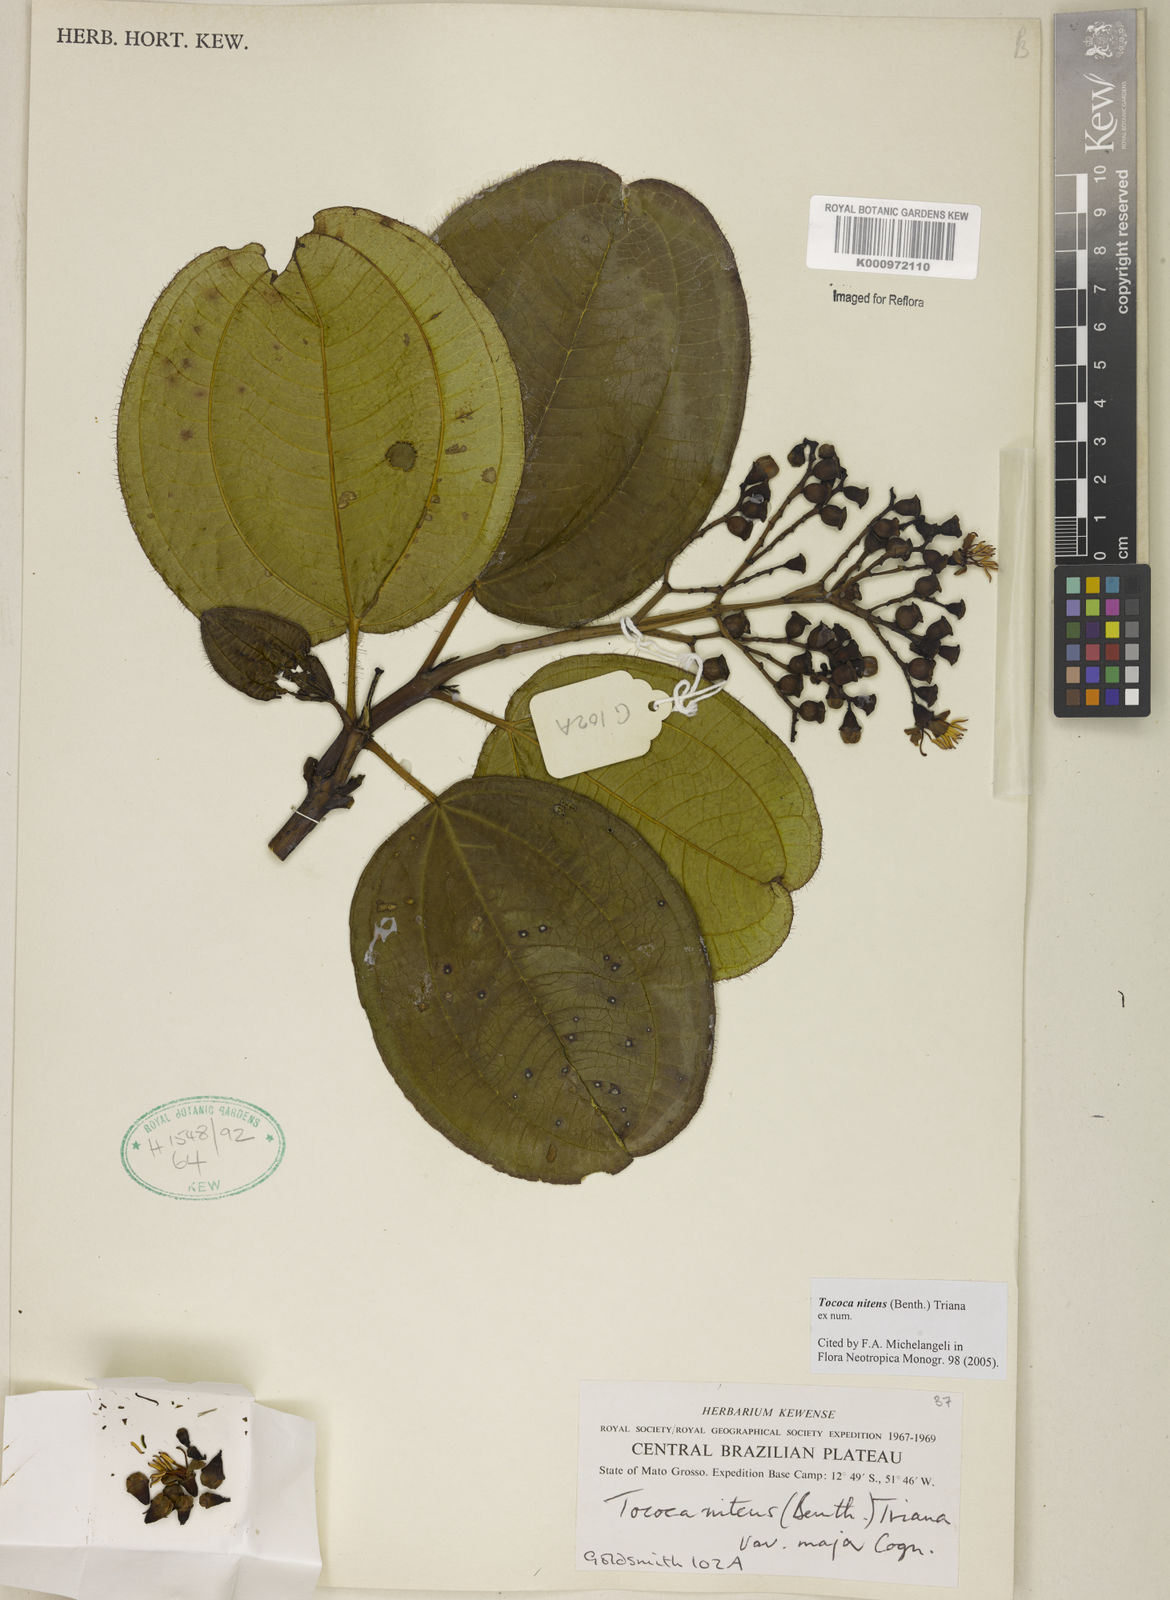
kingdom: Plantae
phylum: Tracheophyta
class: Magnoliopsida
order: Myrtales
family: Melastomataceae
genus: Miconia
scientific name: Miconia nitens
